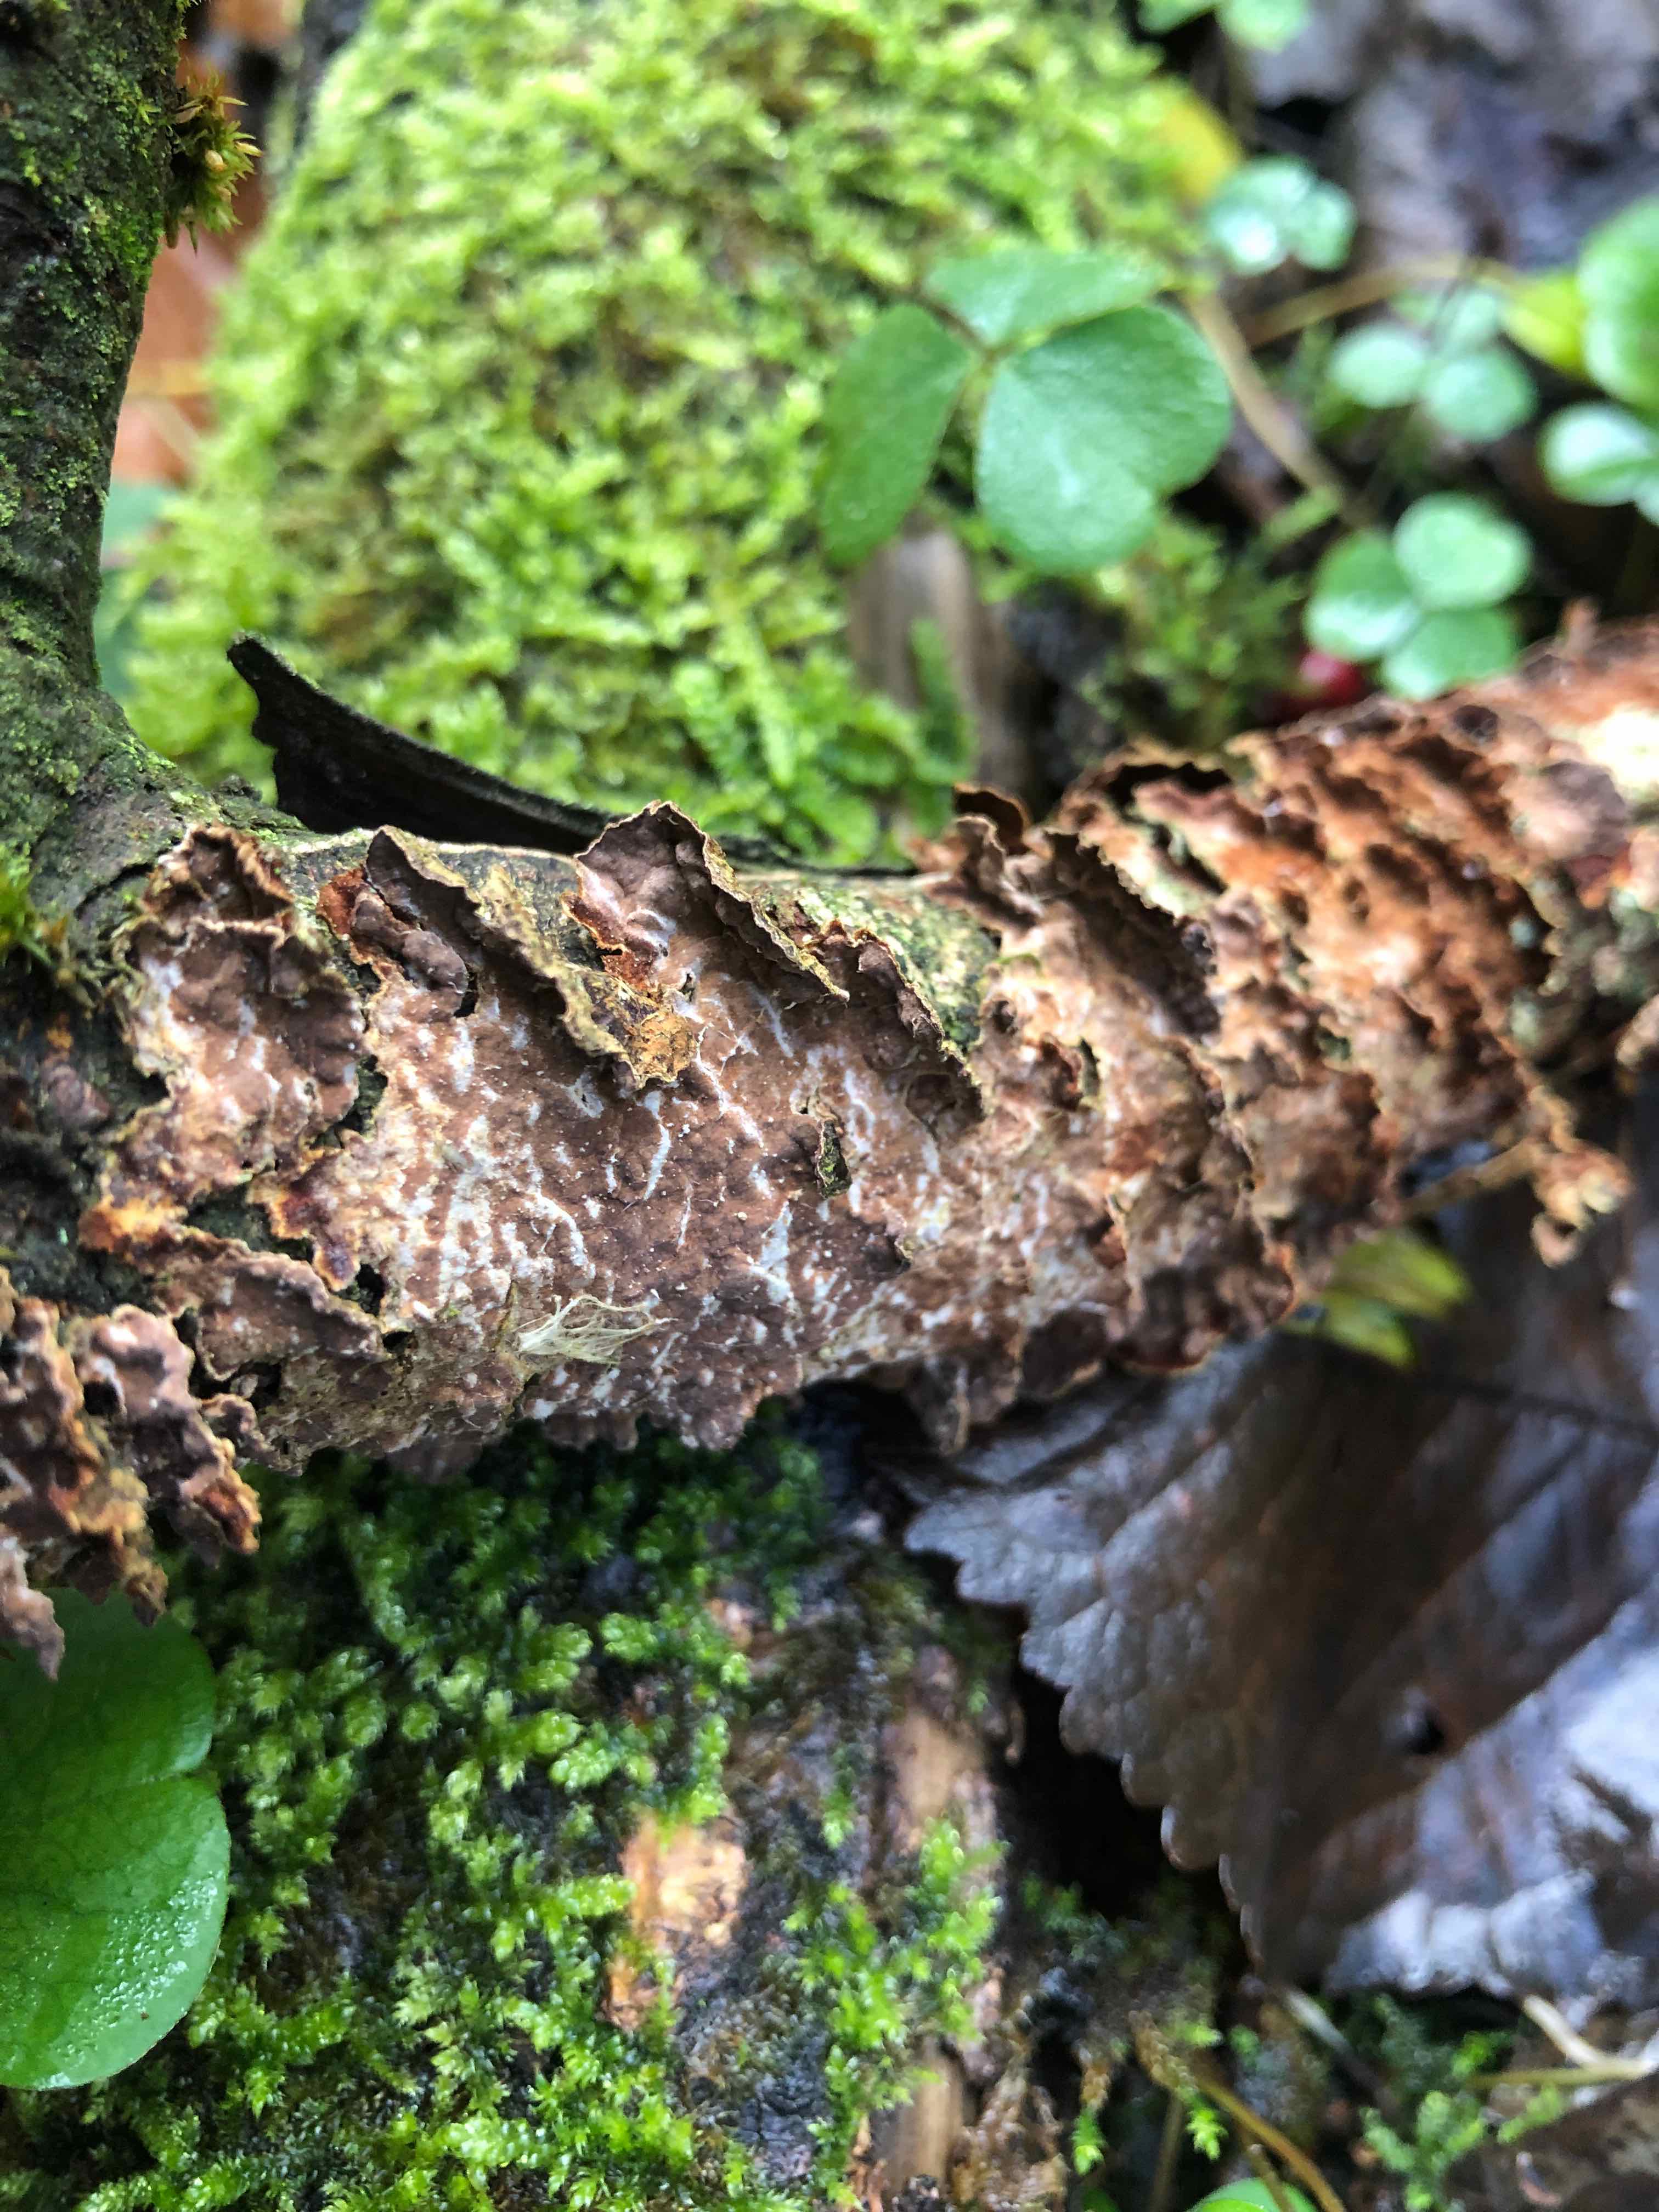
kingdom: Fungi
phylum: Basidiomycota
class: Agaricomycetes
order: Hymenochaetales
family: Hymenochaetaceae
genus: Hydnoporia
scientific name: Hydnoporia tabacina
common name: tobaksbrun ruslædersvamp
